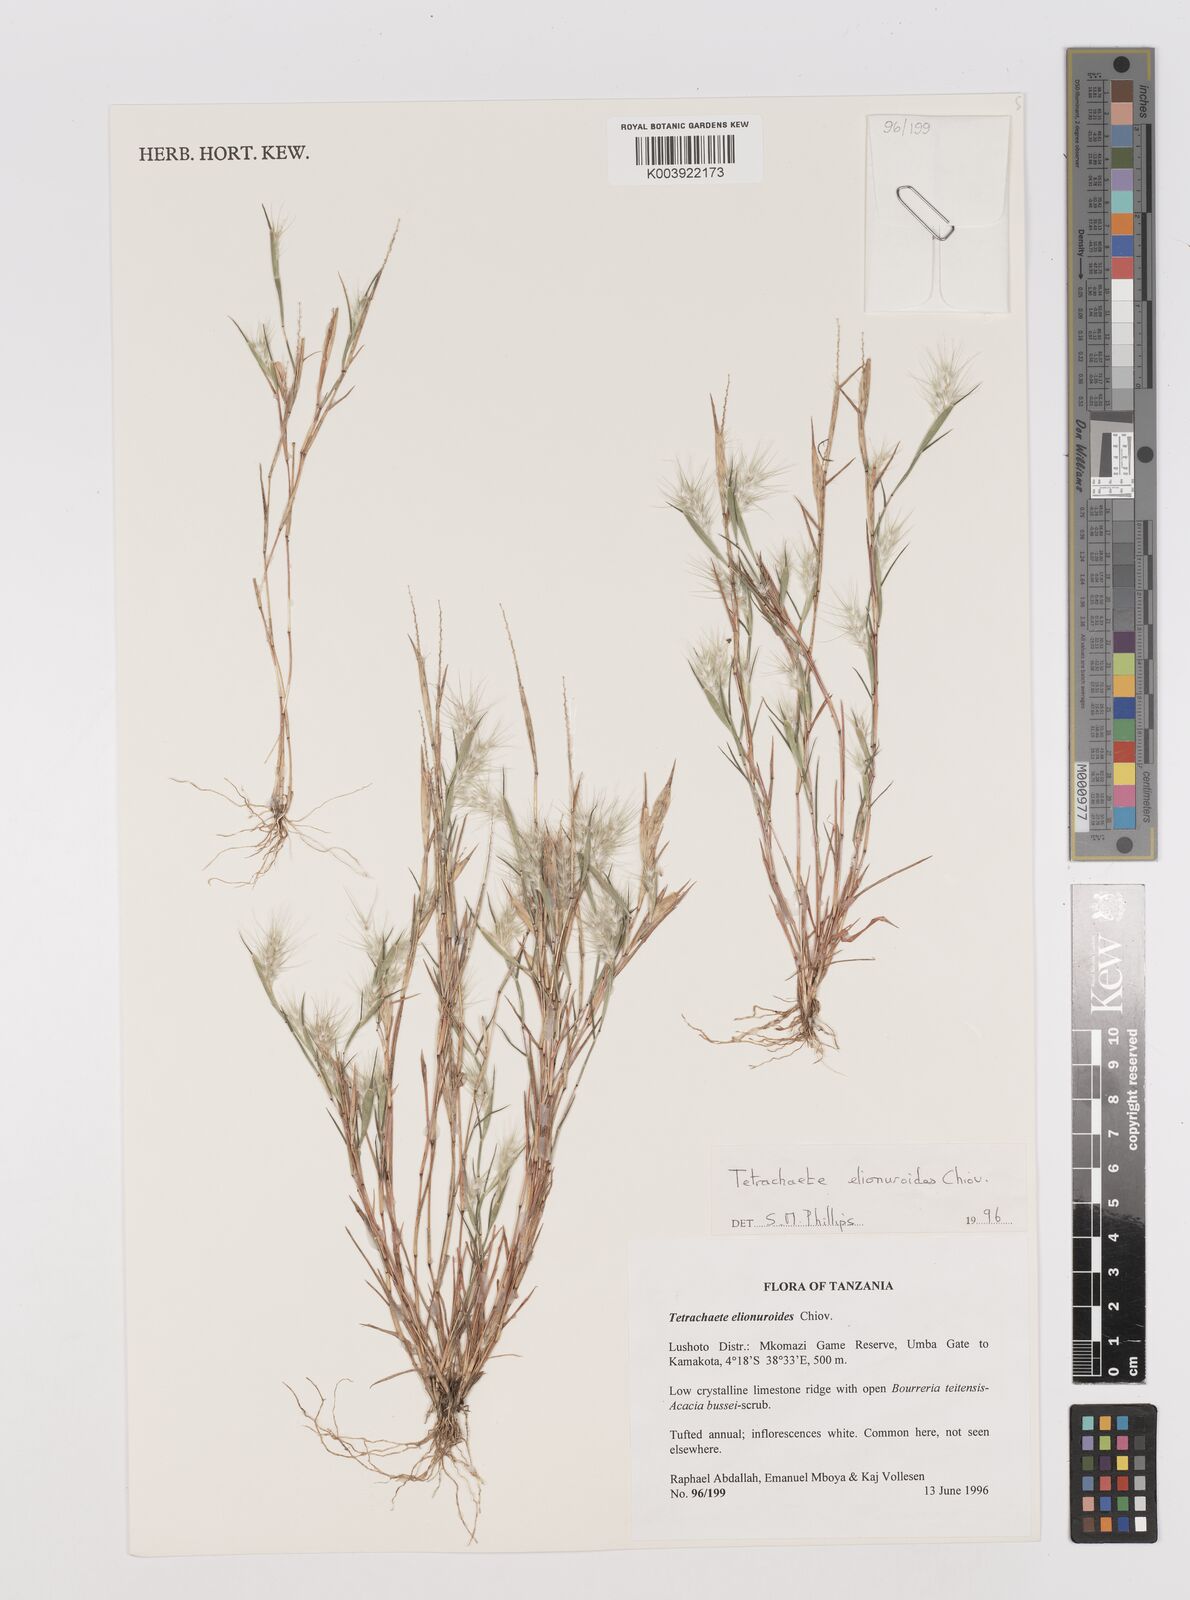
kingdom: Plantae
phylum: Tracheophyta
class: Liliopsida
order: Poales
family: Poaceae
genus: Tetrachaete
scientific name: Tetrachaete elionuroides
